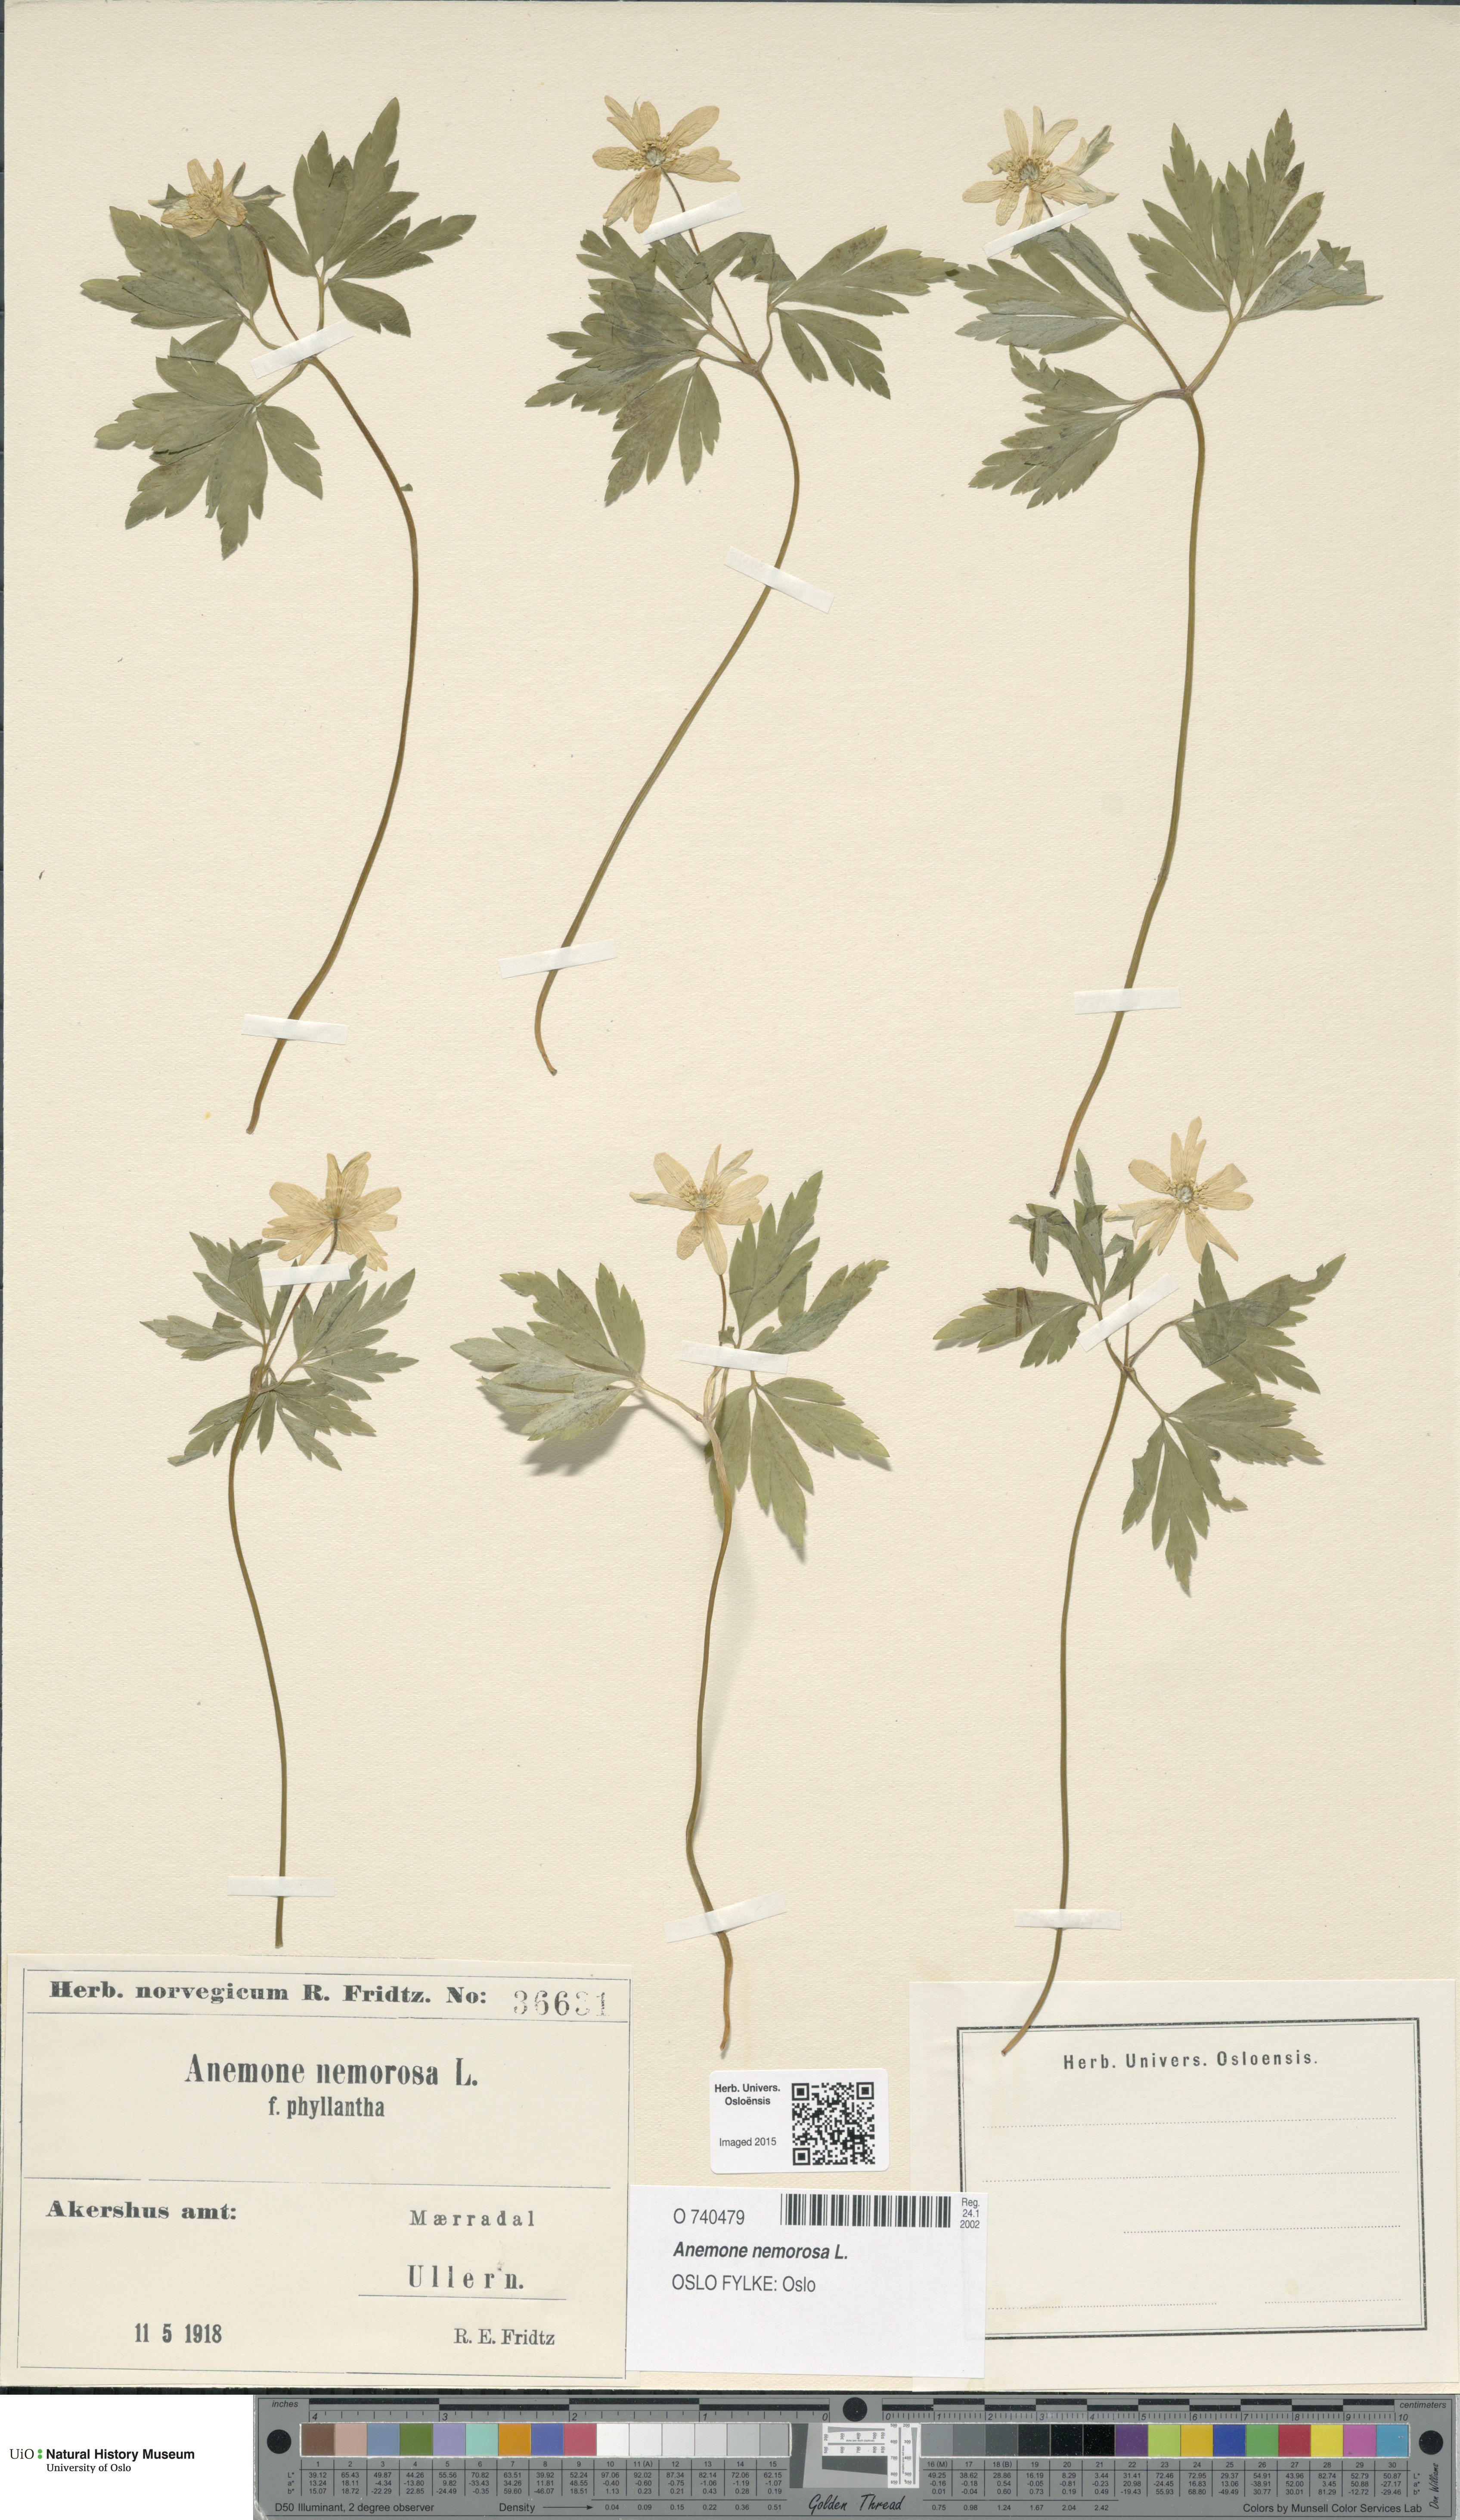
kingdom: Plantae
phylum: Tracheophyta
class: Magnoliopsida
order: Ranunculales
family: Ranunculaceae
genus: Anemone
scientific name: Anemone nemorosa
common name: Wood anemone
